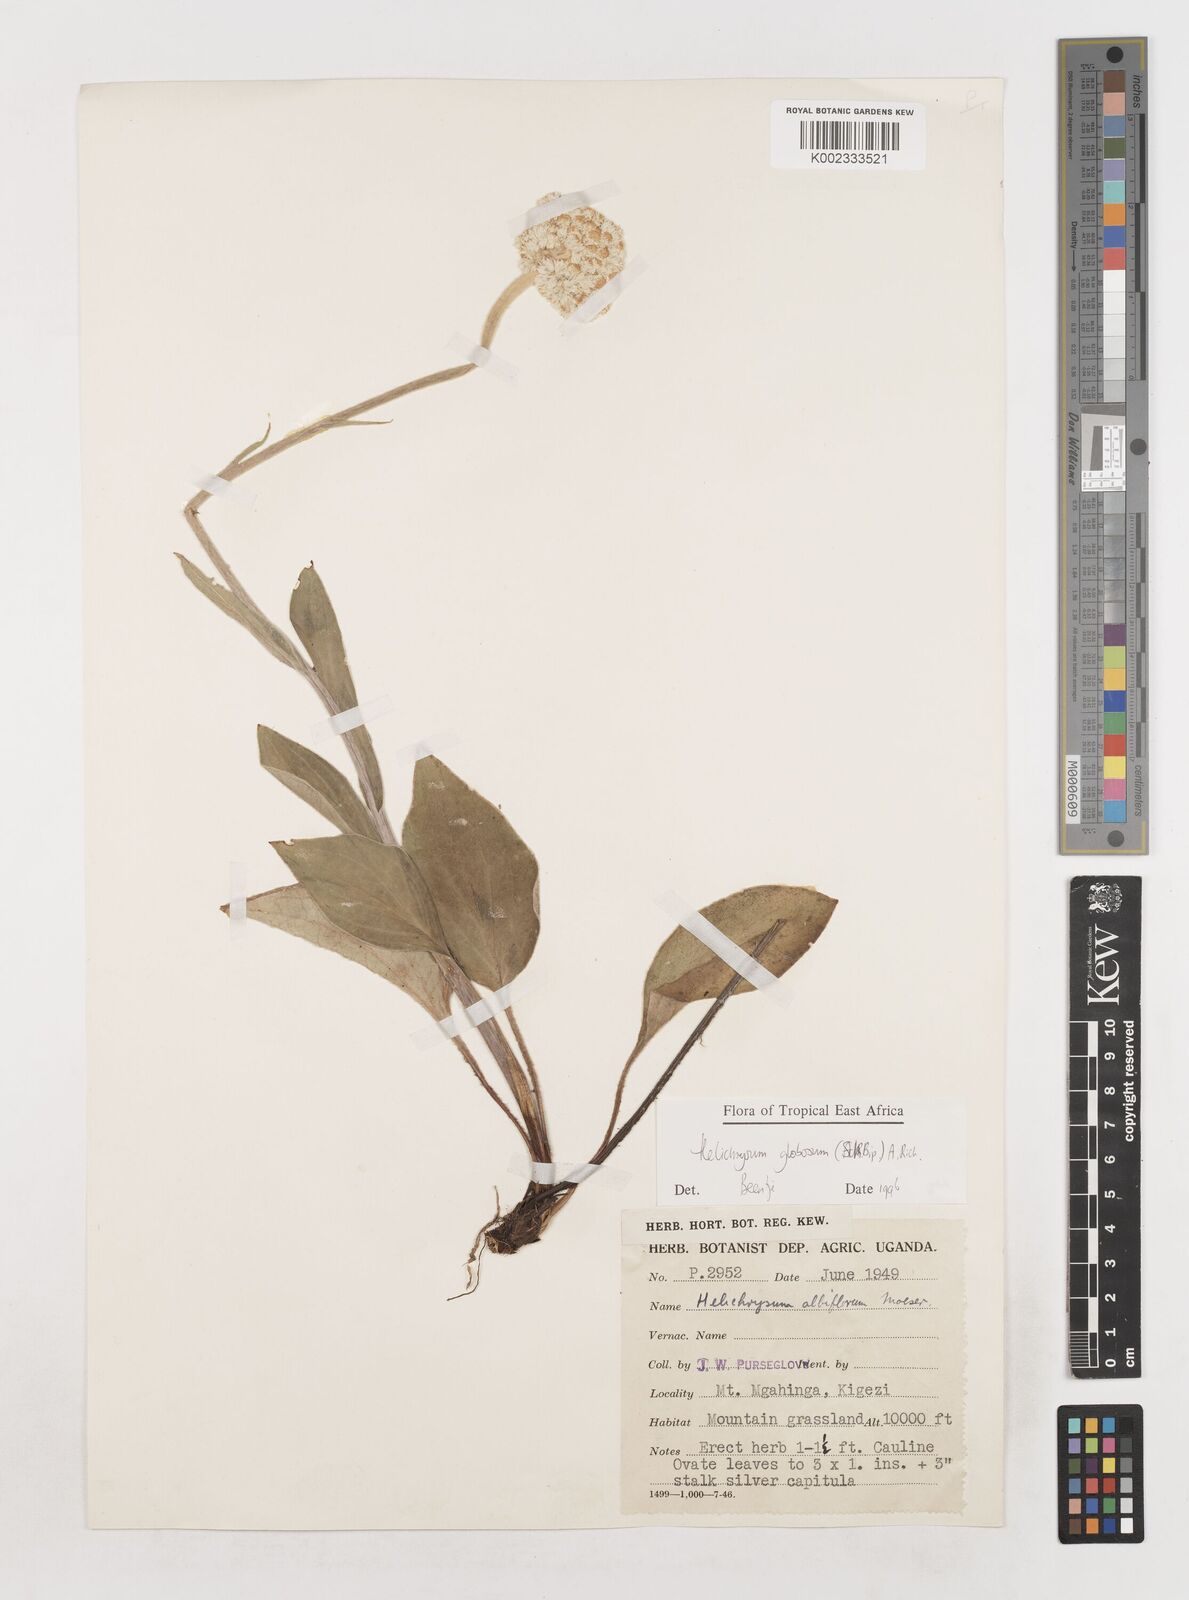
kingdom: Plantae
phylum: Tracheophyta
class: Magnoliopsida
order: Asterales
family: Asteraceae
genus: Helichrysum
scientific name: Helichrysum globosum
